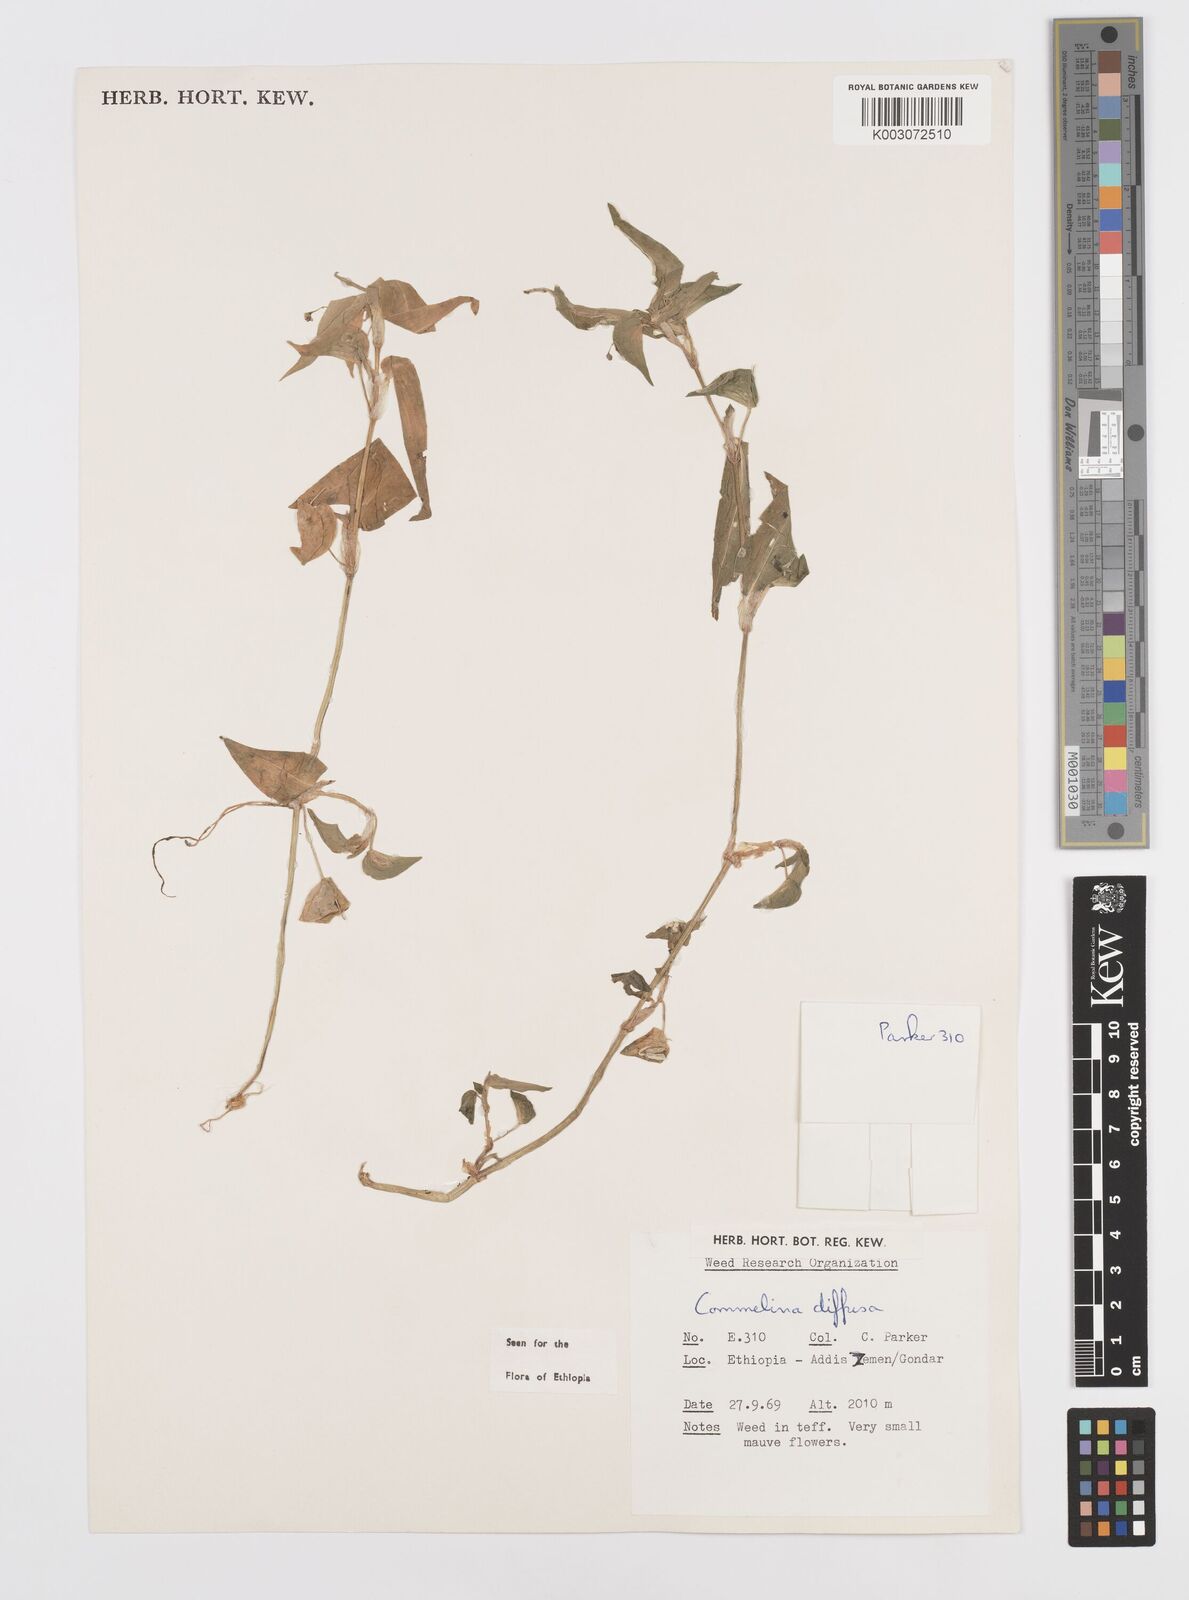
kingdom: Plantae
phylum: Tracheophyta
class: Liliopsida
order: Commelinales
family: Commelinaceae
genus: Commelina
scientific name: Commelina diffusa
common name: Climbing dayflower
